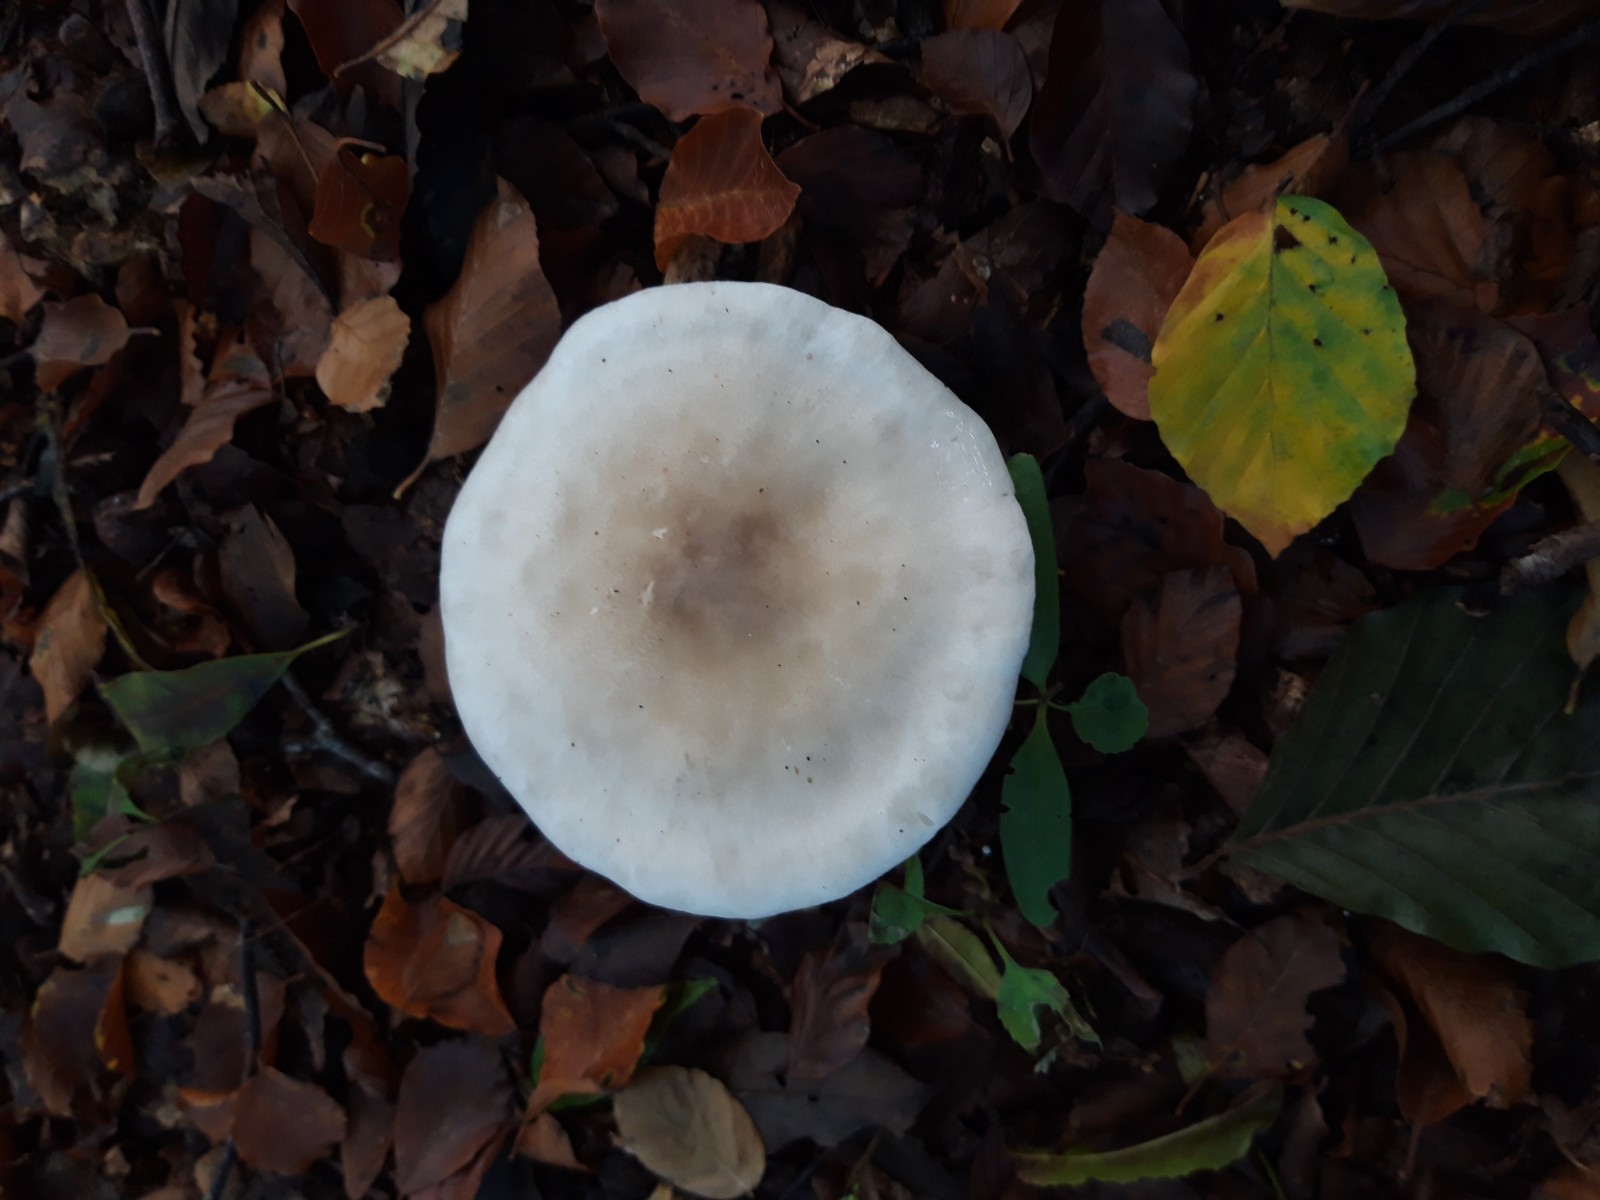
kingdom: Fungi
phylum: Basidiomycota
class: Agaricomycetes
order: Agaricales
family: Tricholomataceae
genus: Clitocybe
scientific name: Clitocybe nebularis
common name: tåge-tragthat
